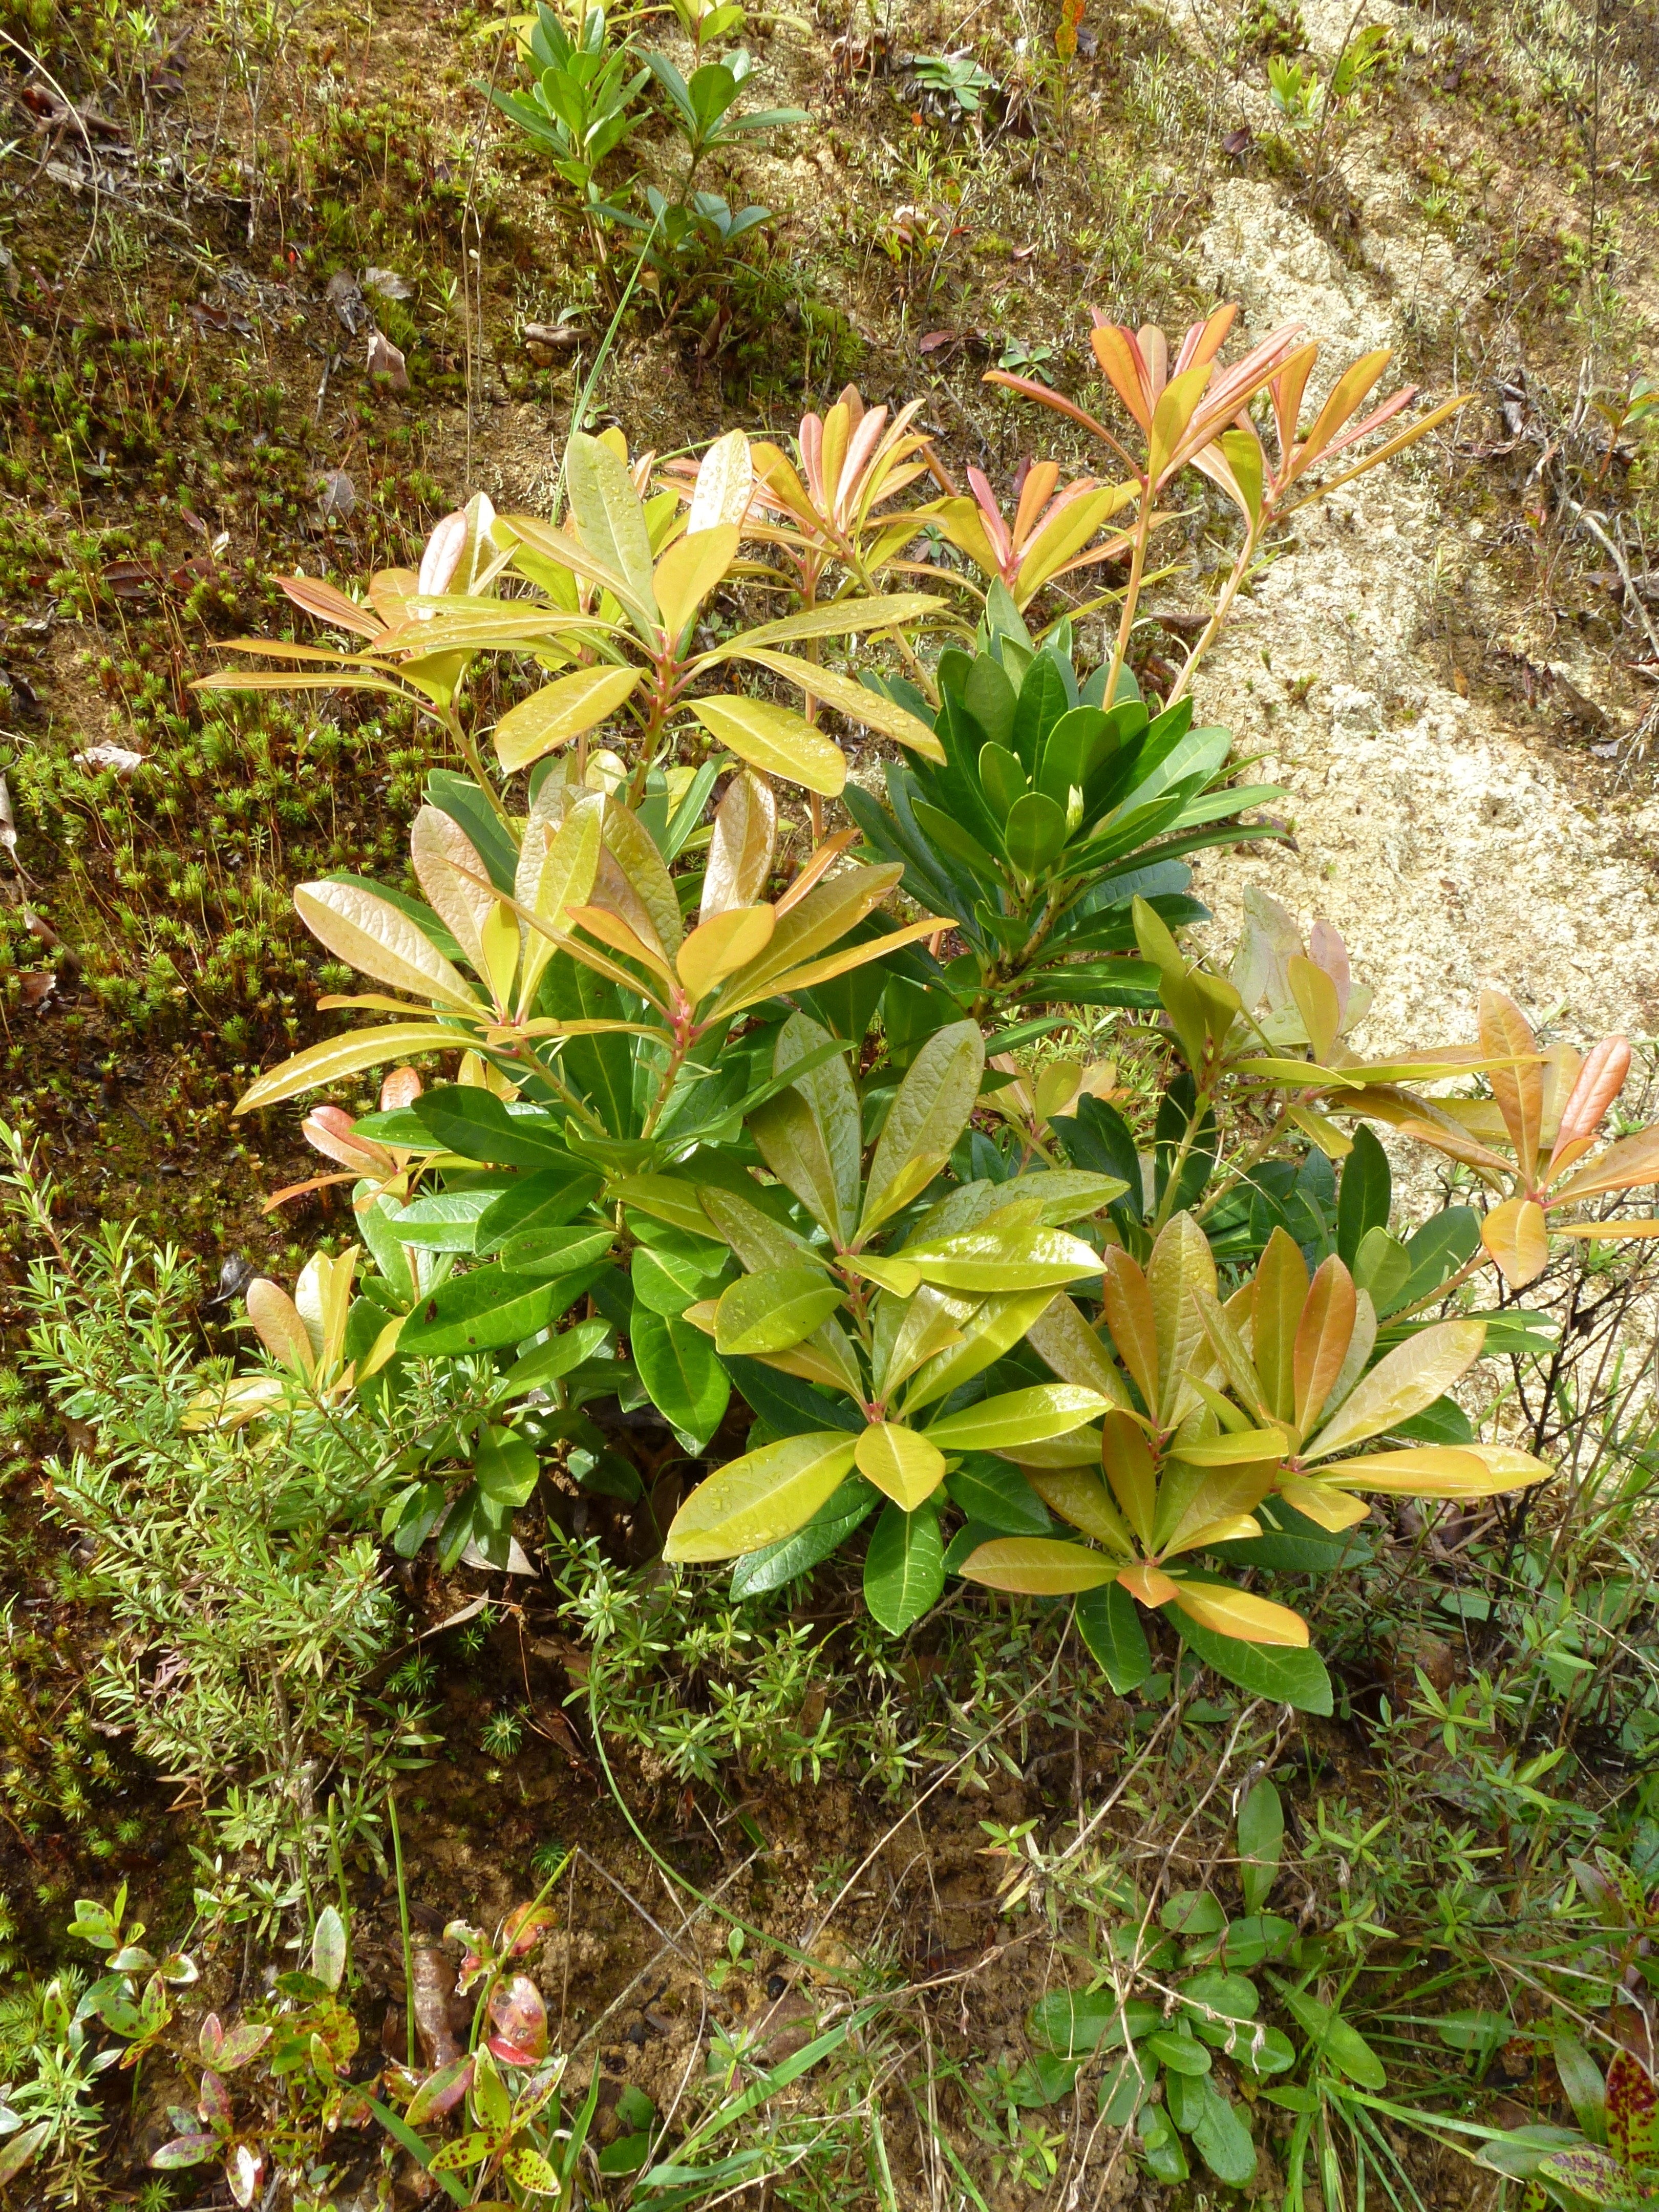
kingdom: Plantae
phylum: Tracheophyta
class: Magnoliopsida
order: Ericales
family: Ericaceae
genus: Pieris
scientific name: Pieris japonica
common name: Japanese pieris
